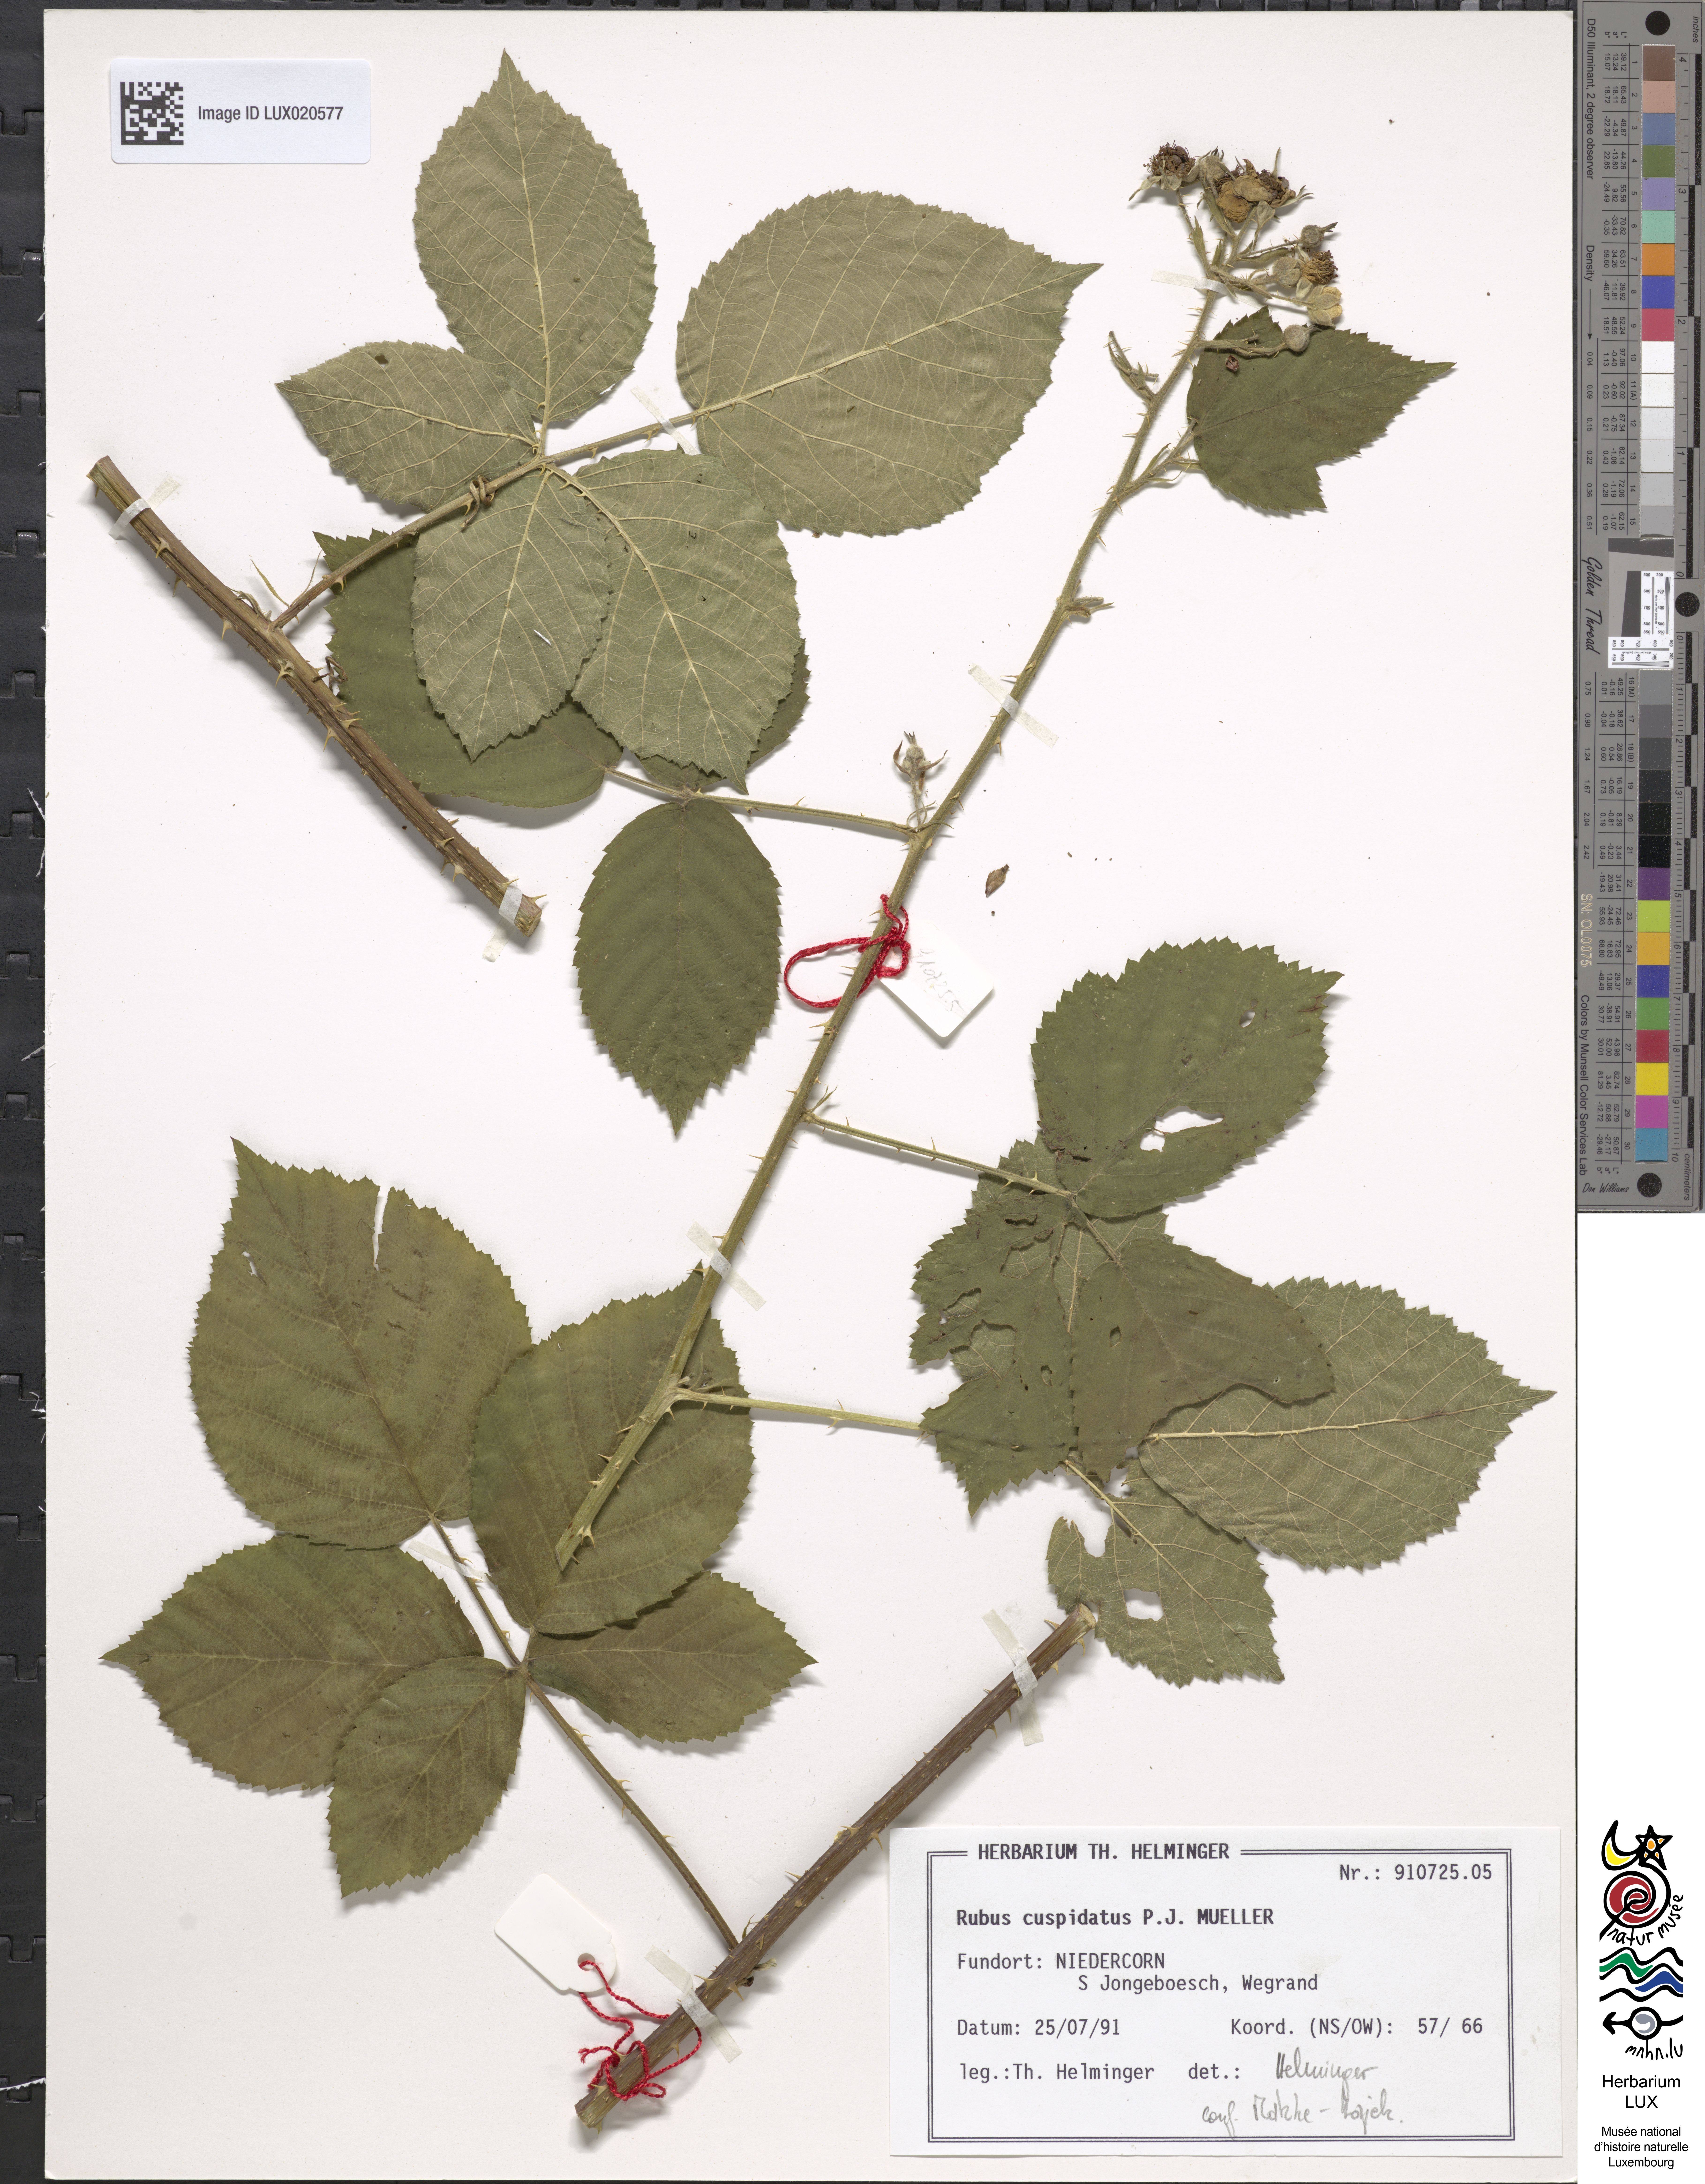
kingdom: Plantae
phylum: Tracheophyta
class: Magnoliopsida
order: Rosales
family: Rosaceae
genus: Rubus
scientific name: Rubus cuspidatus
